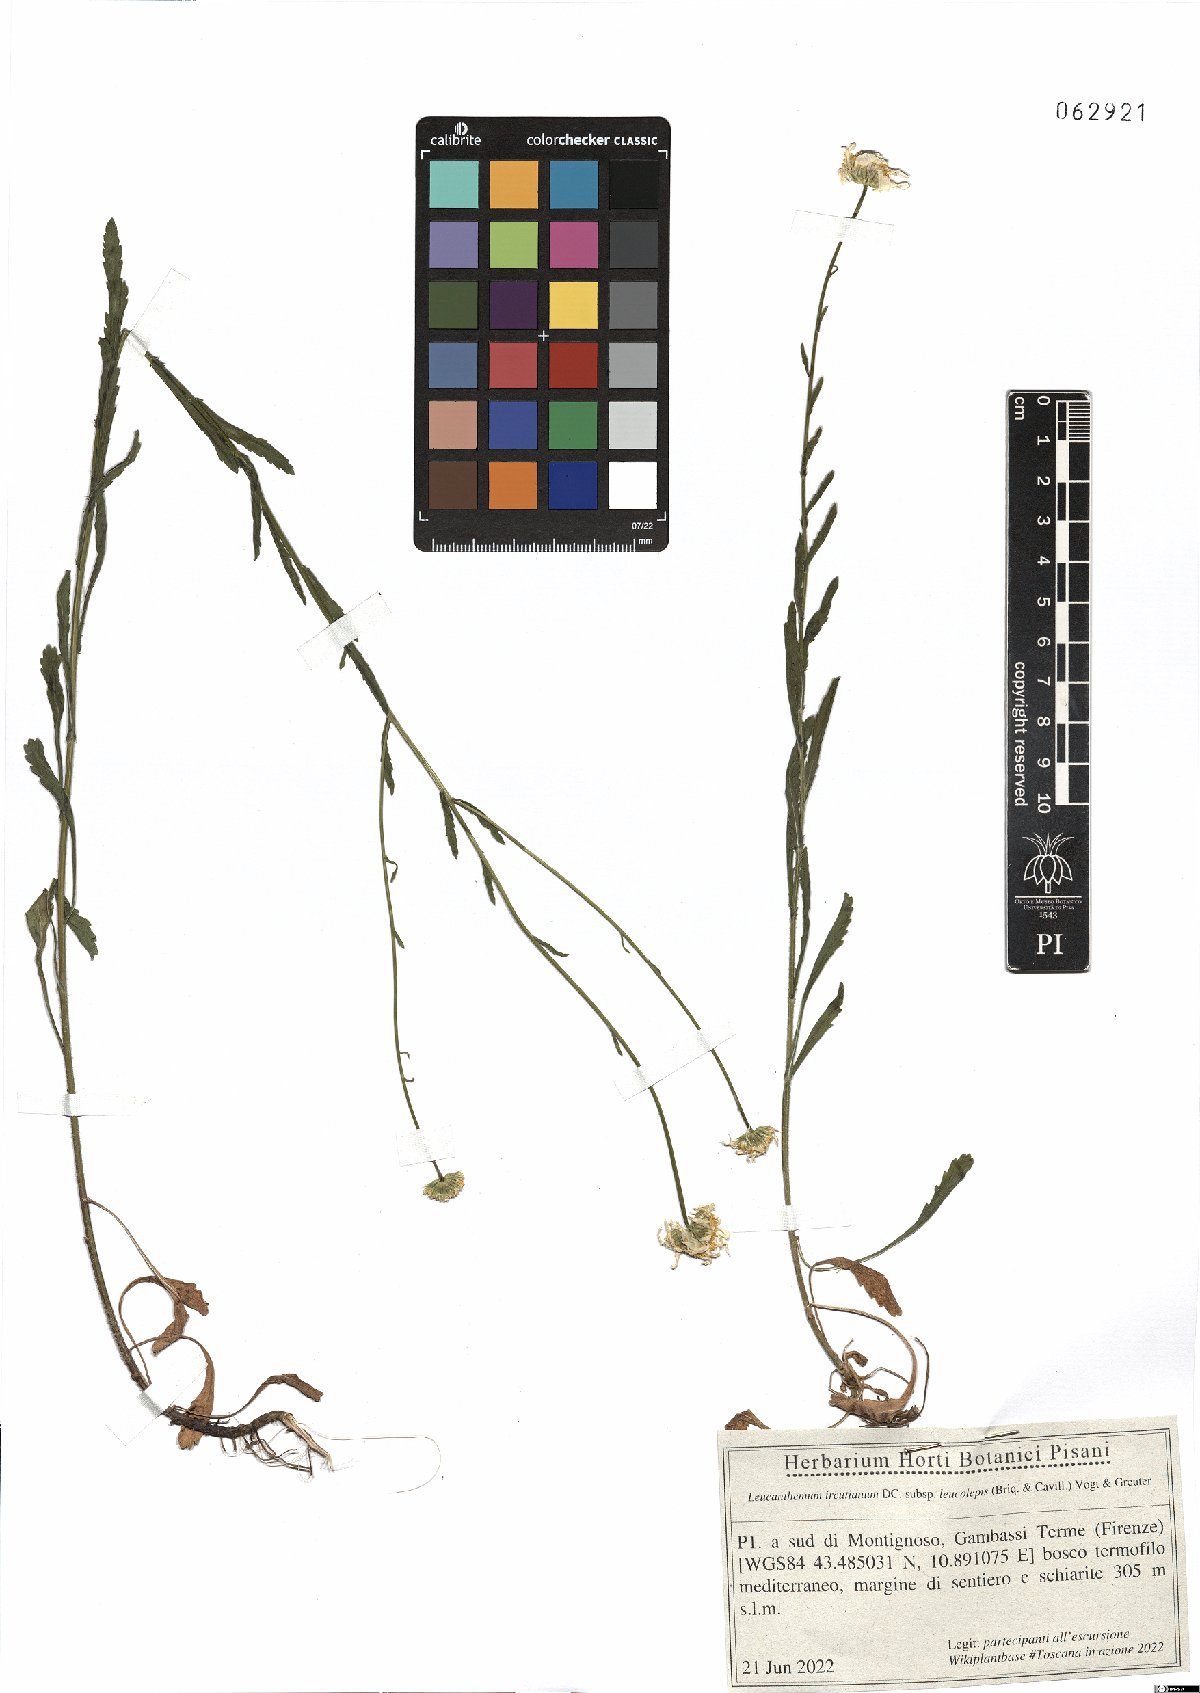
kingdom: Plantae
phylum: Tracheophyta
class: Magnoliopsida
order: Asterales
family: Asteraceae
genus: Leucanthemum
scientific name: Leucanthemum ircutianum
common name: Daisy
